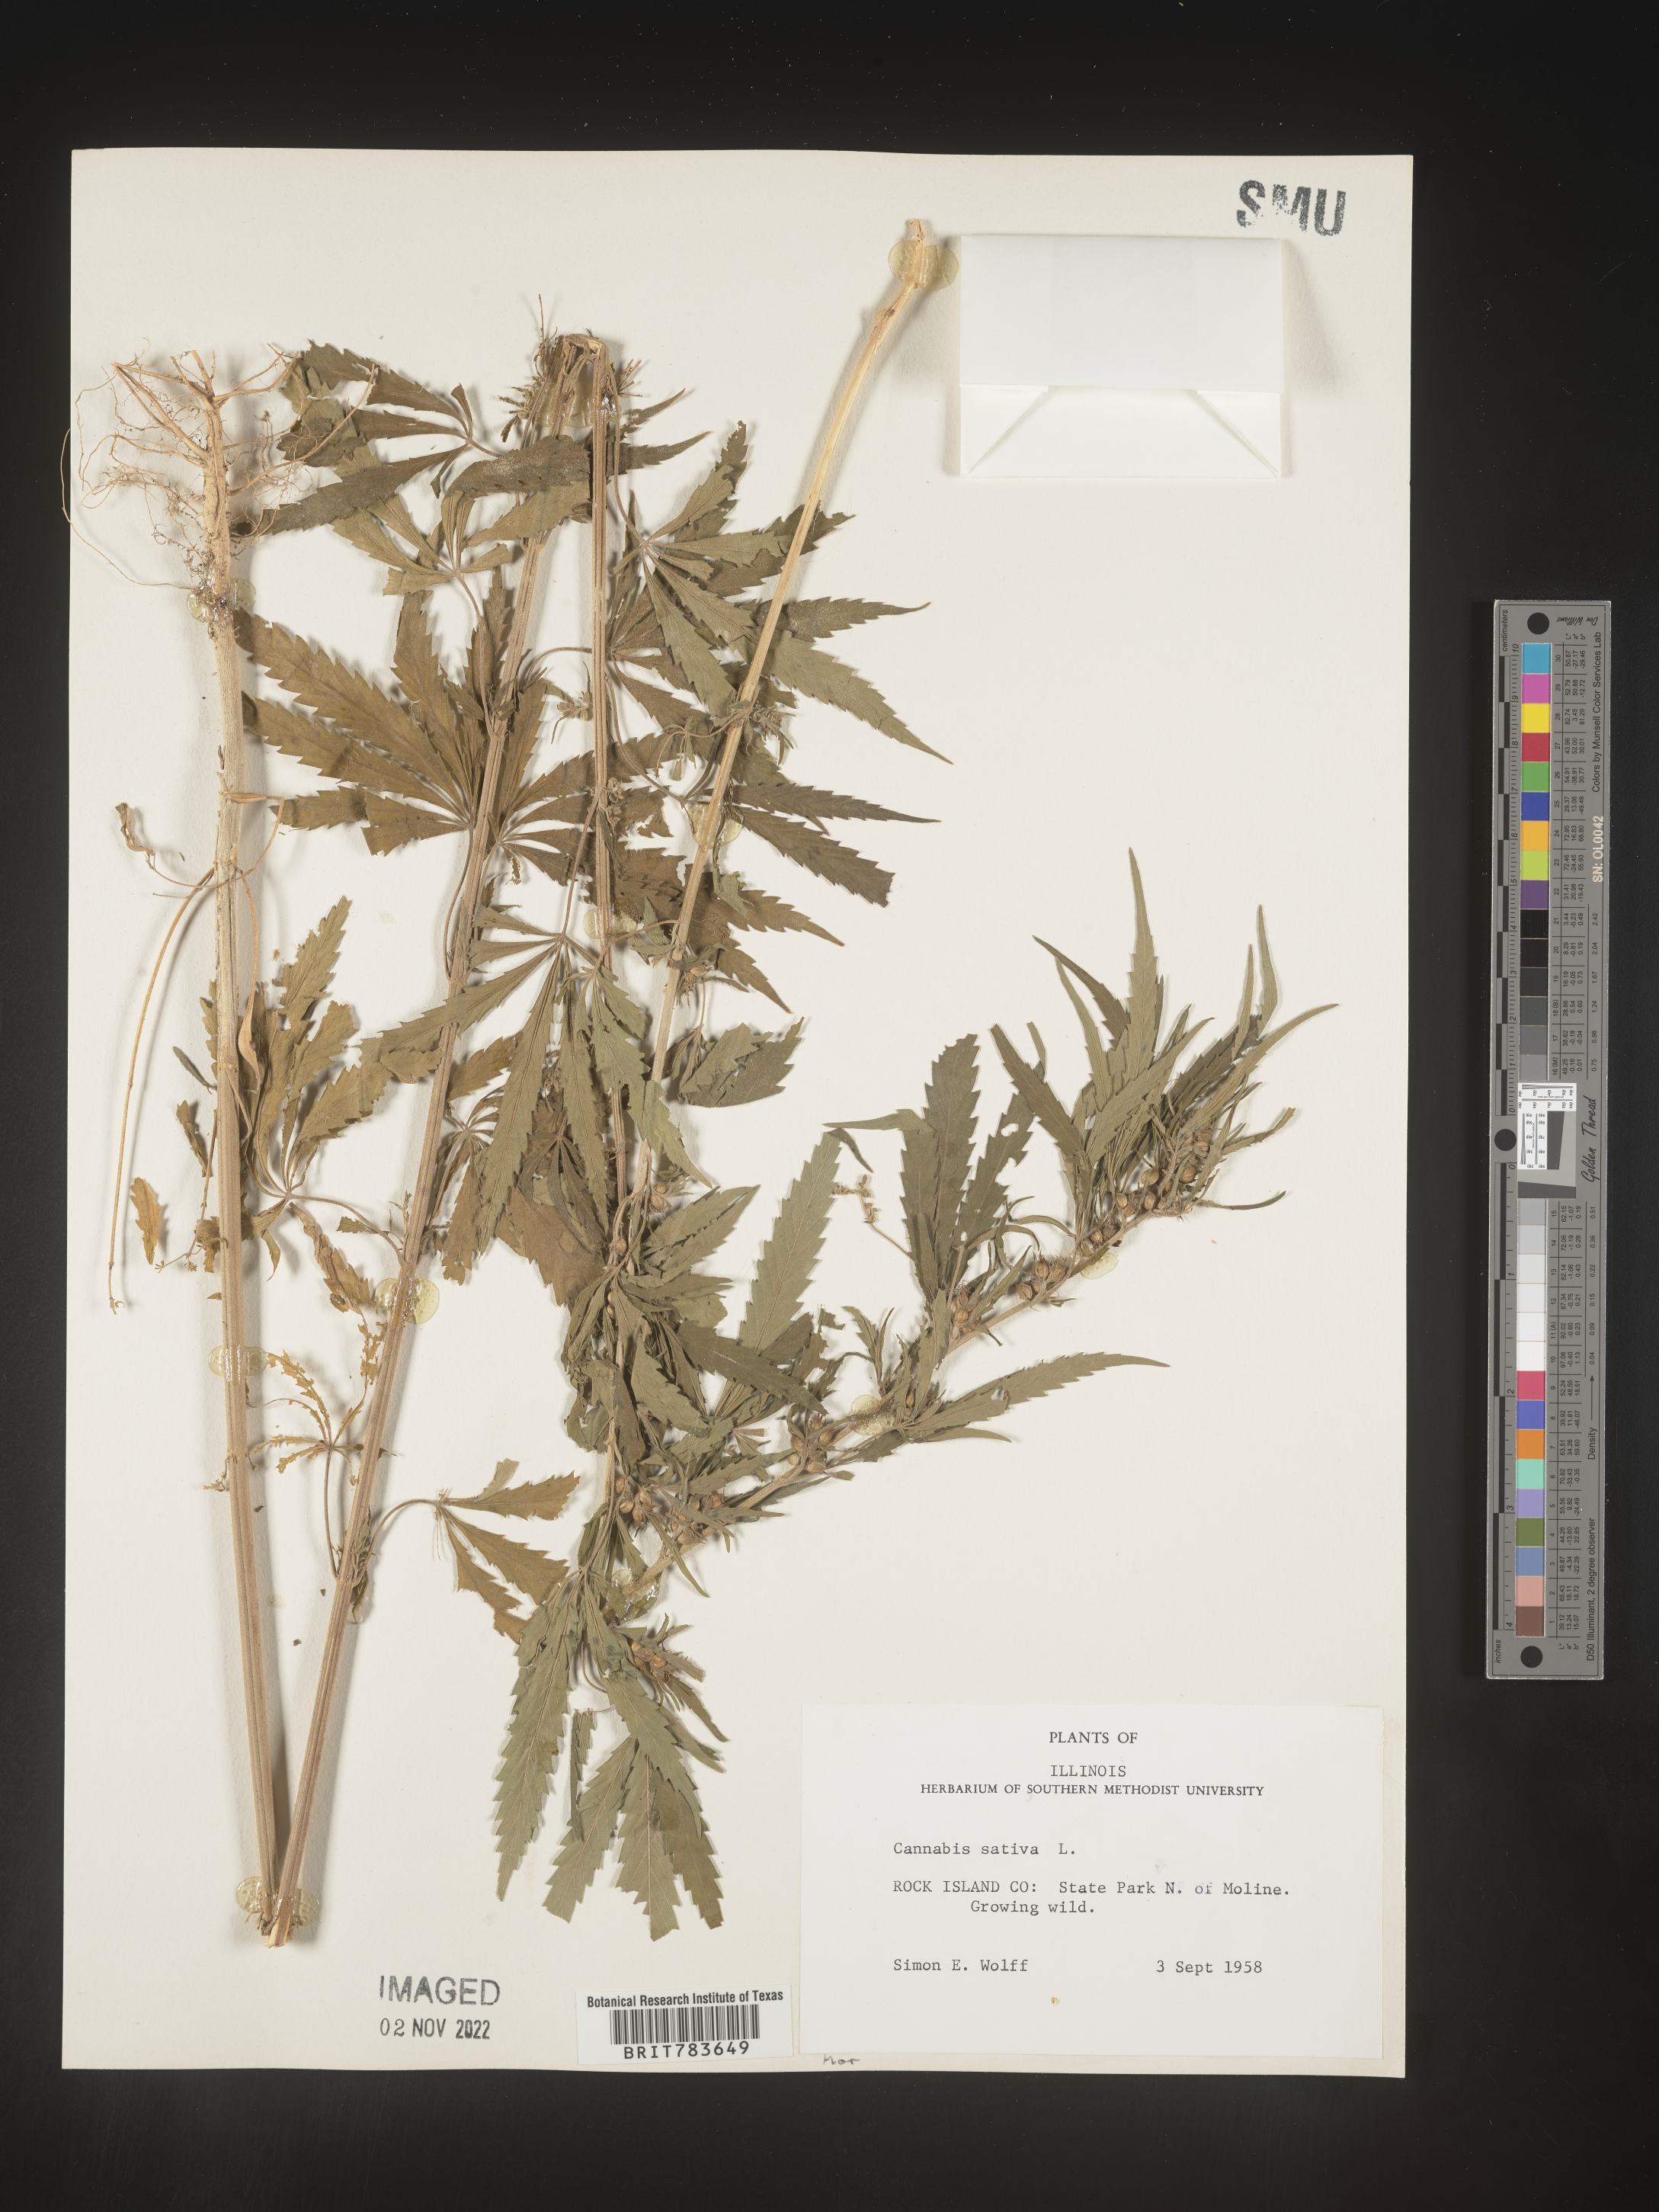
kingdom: Plantae
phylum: Tracheophyta
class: Magnoliopsida
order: Rosales
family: Cannabaceae
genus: Cannabis
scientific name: Cannabis sativa
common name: Hemp
